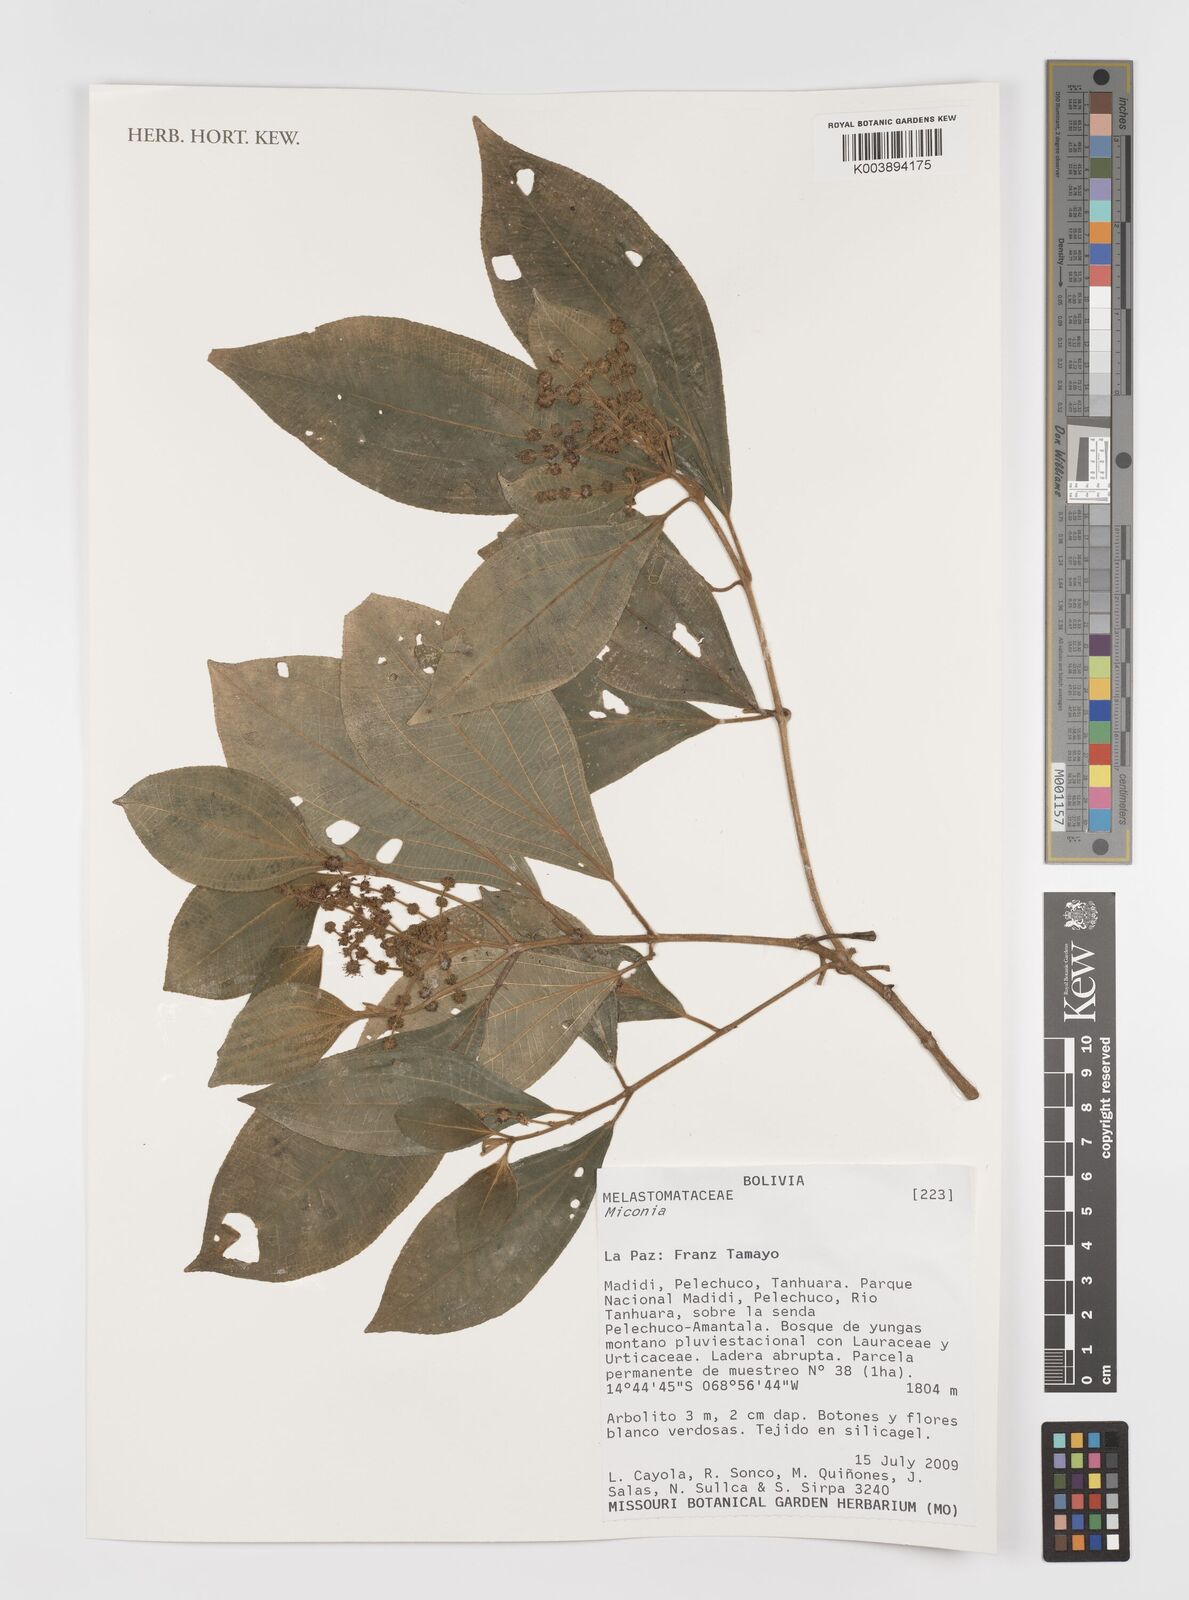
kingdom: Plantae
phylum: Tracheophyta
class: Magnoliopsida
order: Myrtales
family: Melastomataceae
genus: Miconia
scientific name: Miconia
